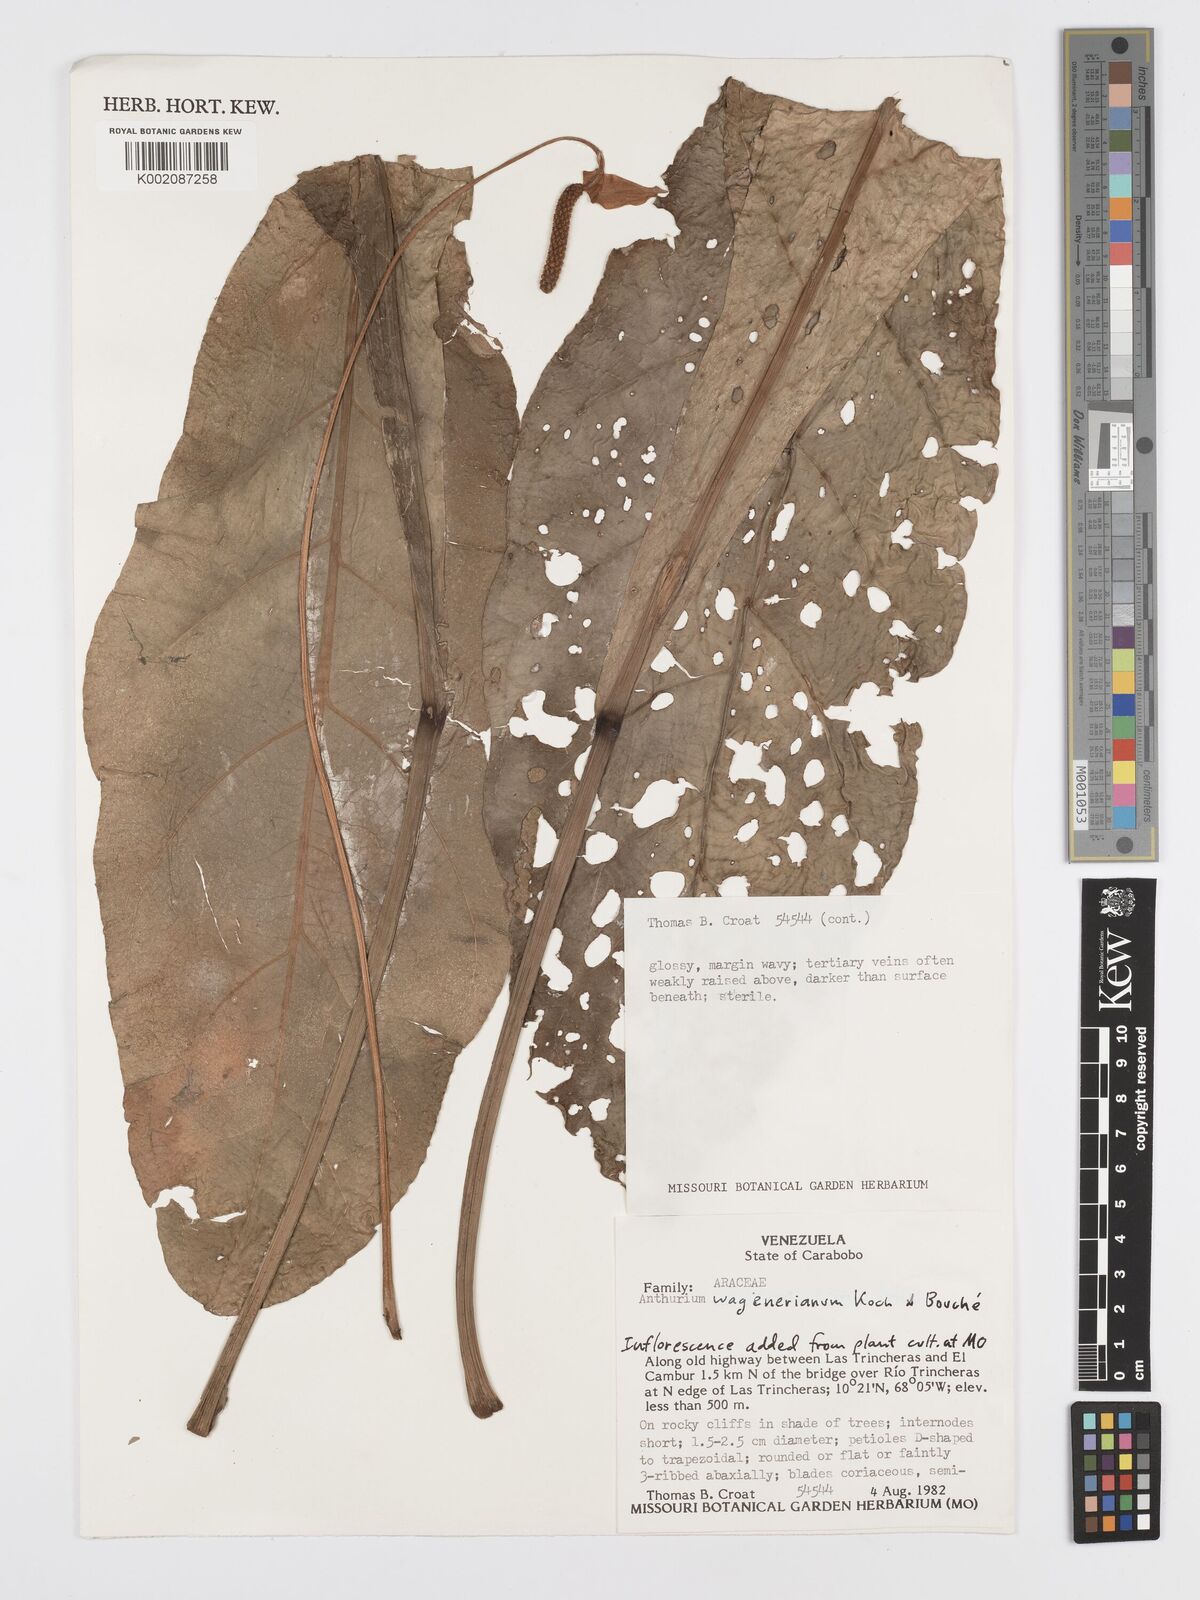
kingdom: Plantae
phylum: Tracheophyta
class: Liliopsida
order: Alismatales
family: Araceae
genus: Anthurium
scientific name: Anthurium wagenerianum
